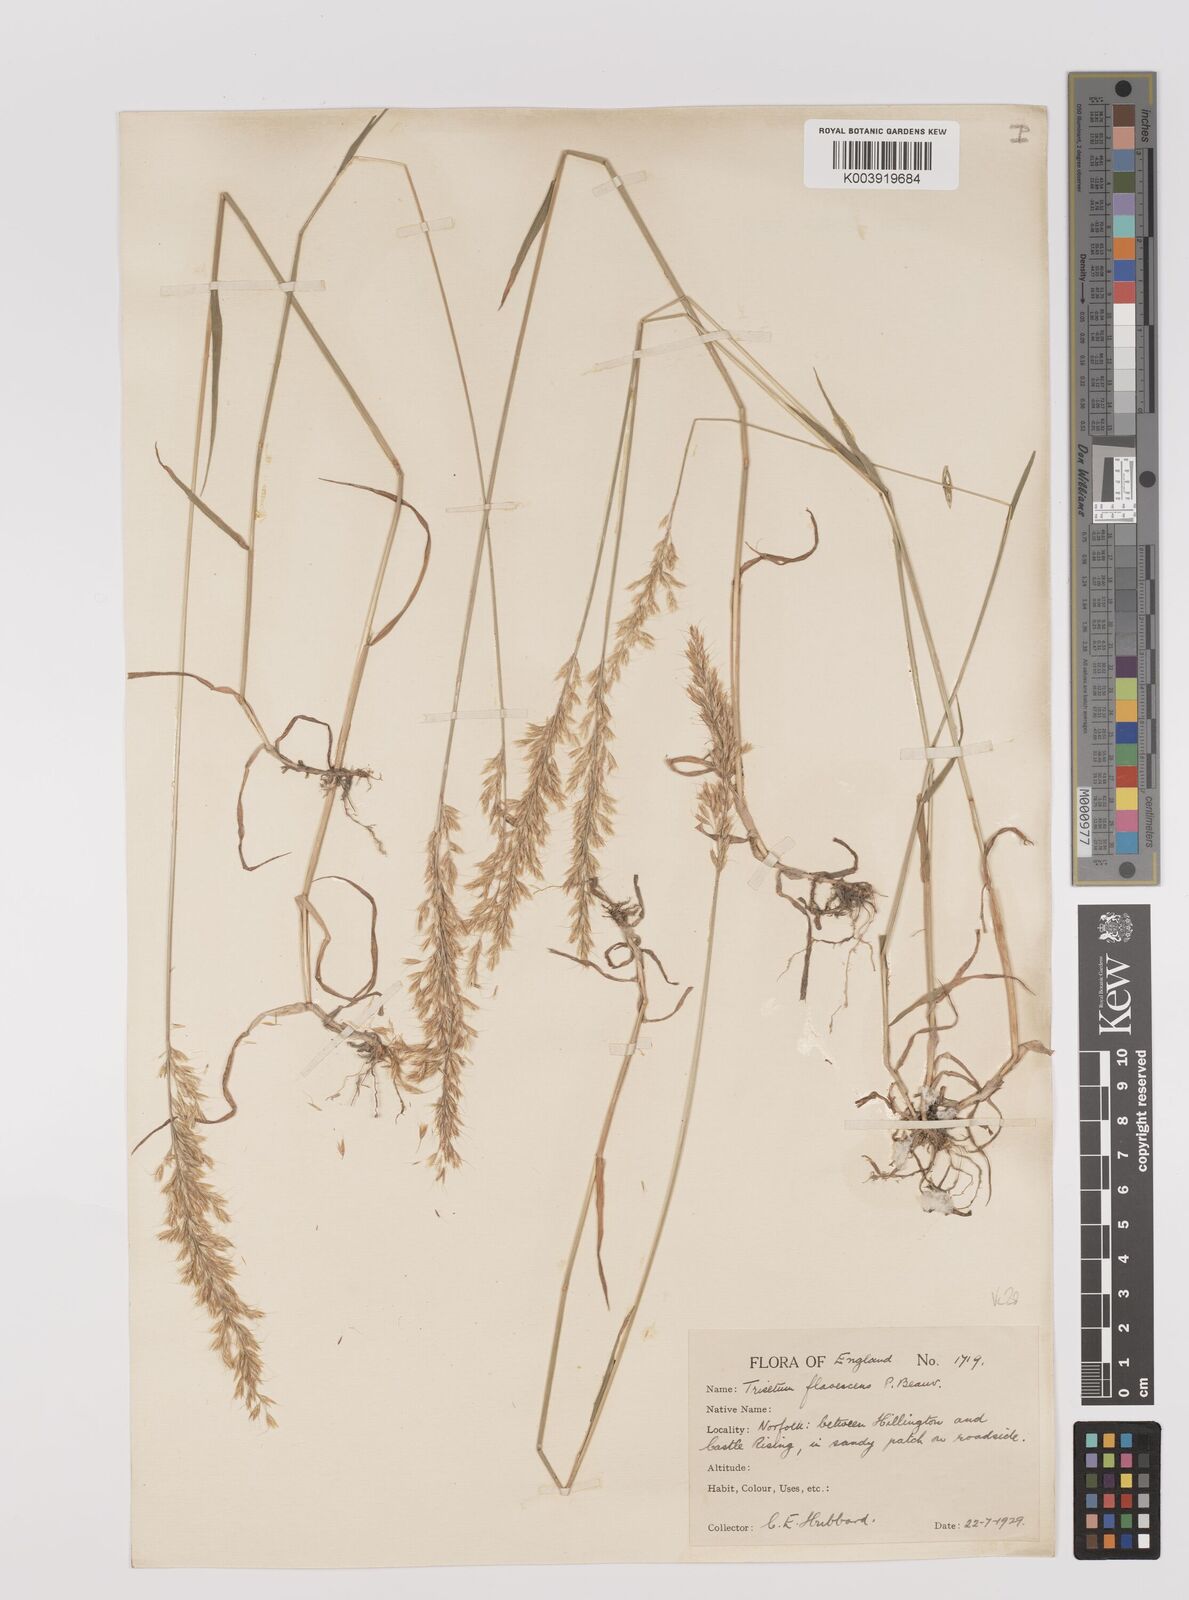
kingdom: Plantae
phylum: Tracheophyta
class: Liliopsida
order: Poales
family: Poaceae
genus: Trisetum
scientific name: Trisetum flavescens
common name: Yellow oat-grass
